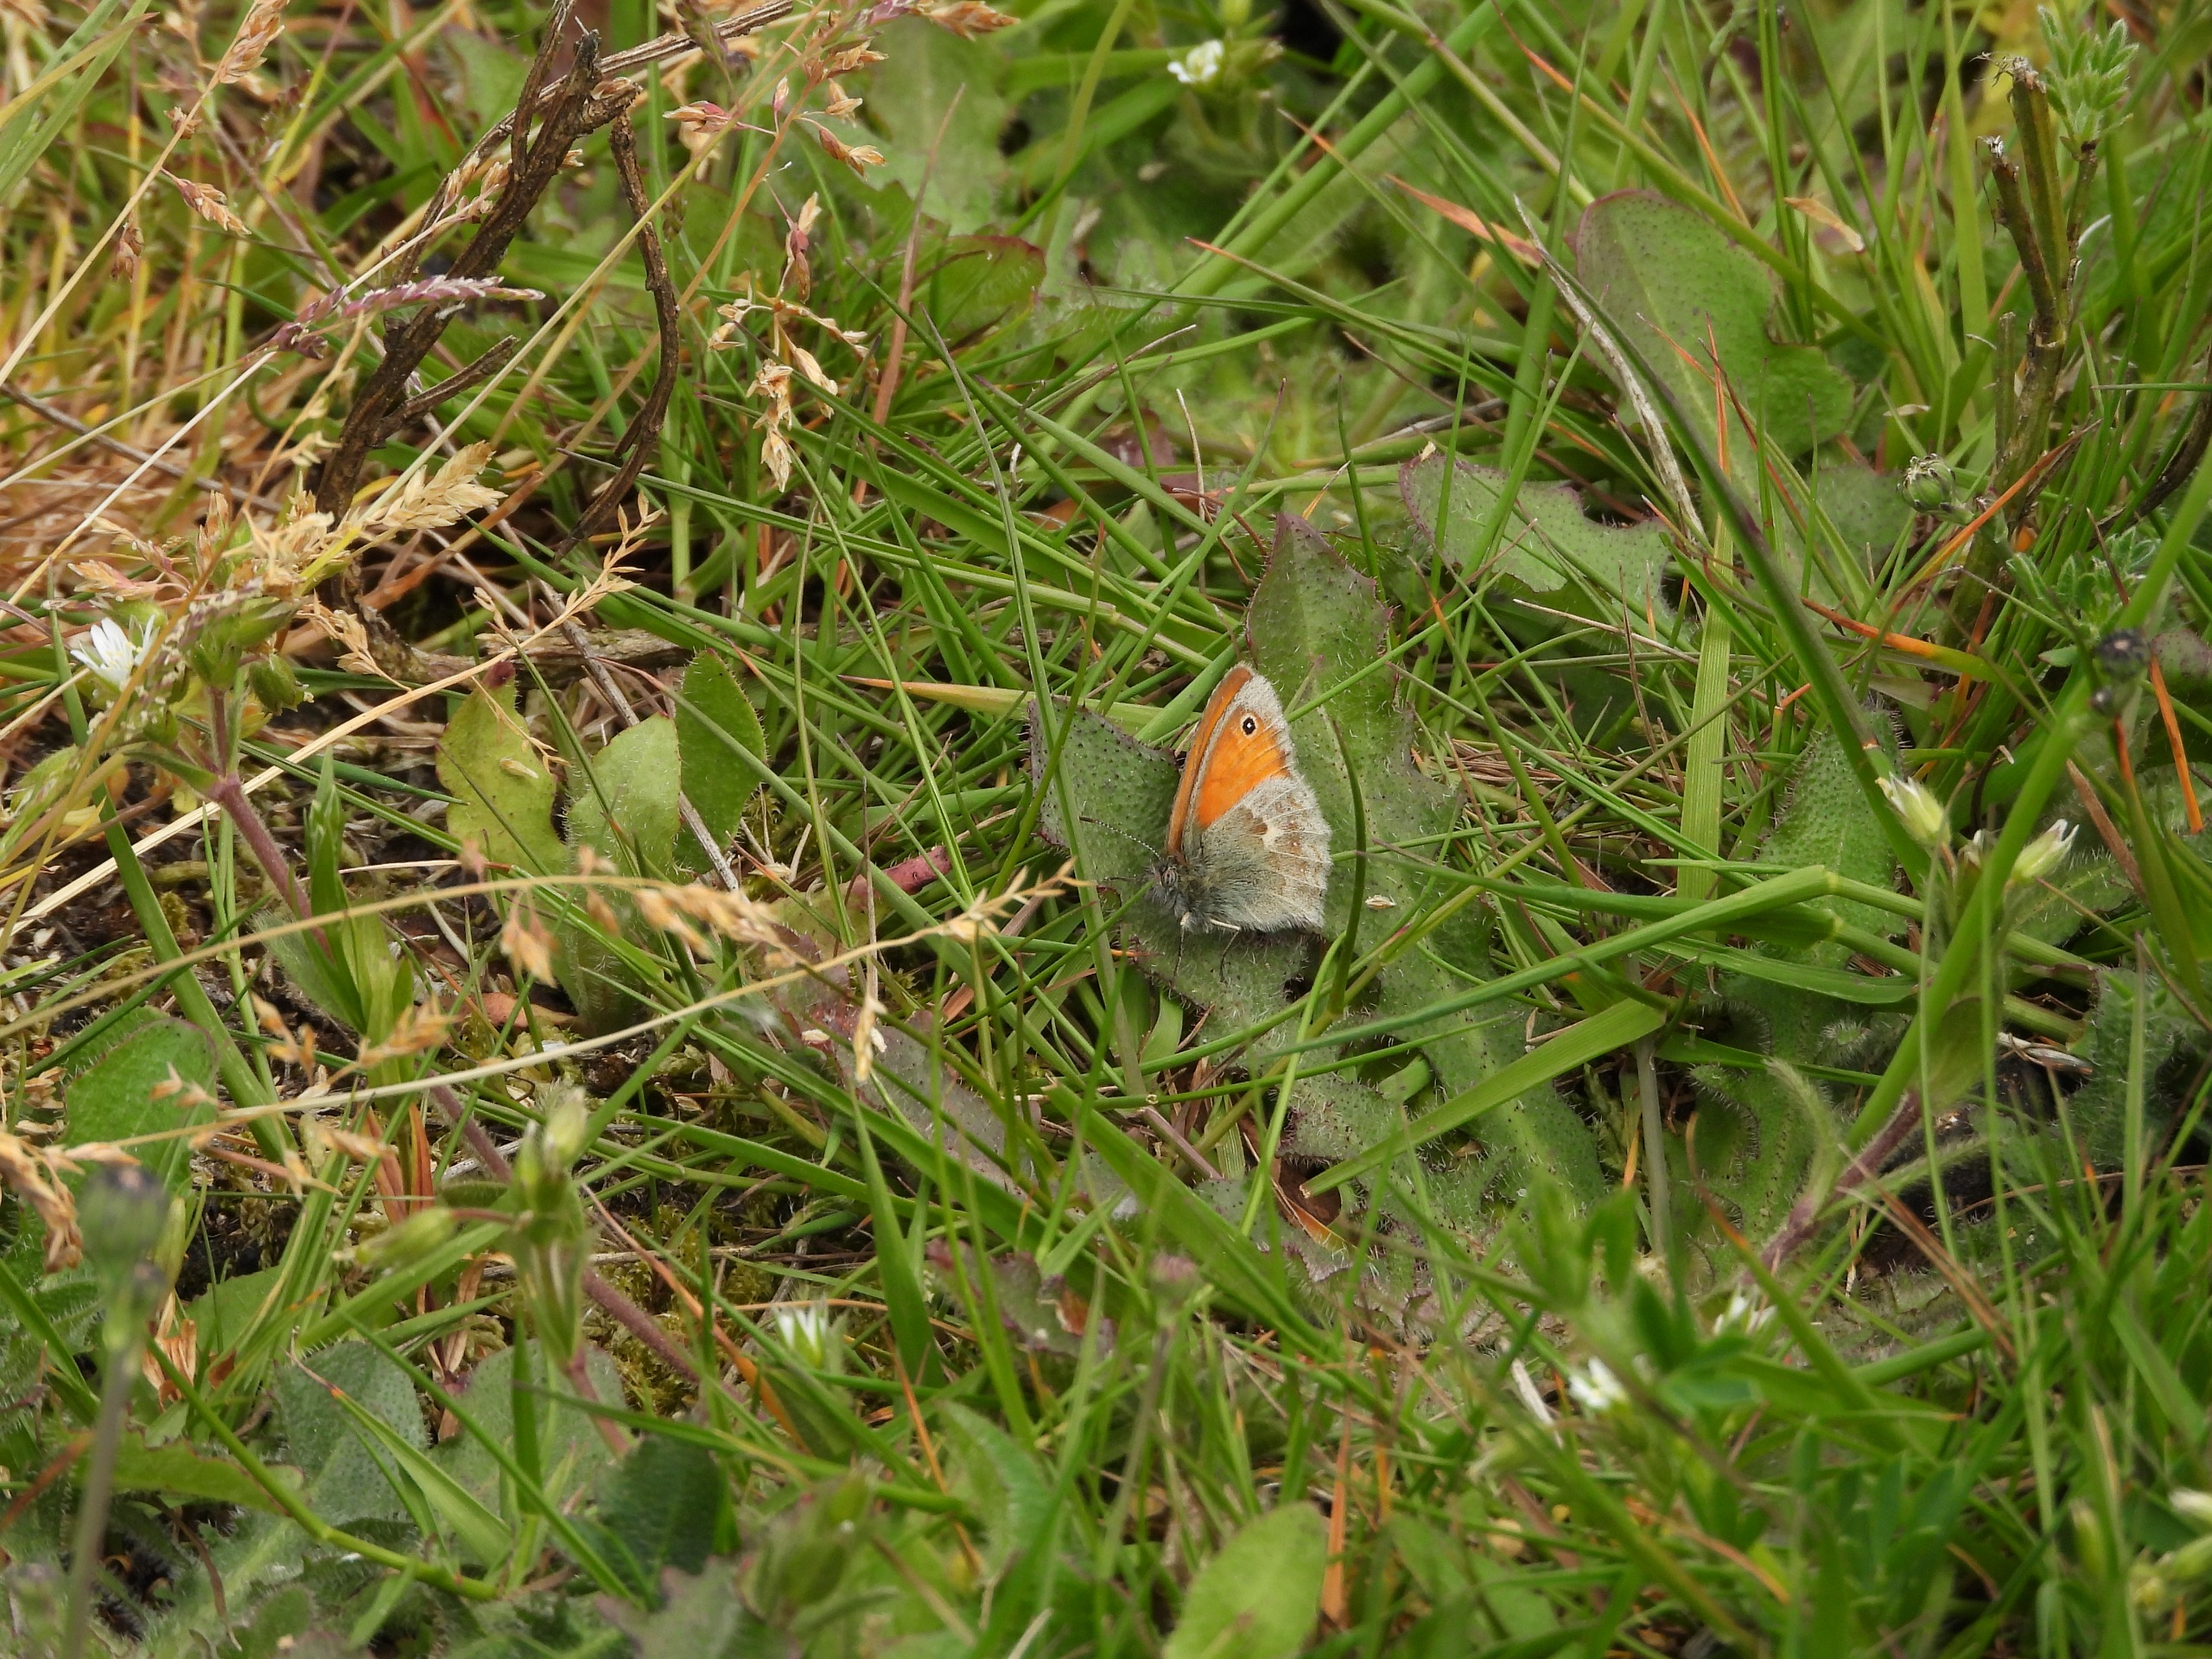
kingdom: Animalia
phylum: Arthropoda
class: Insecta
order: Lepidoptera
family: Nymphalidae
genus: Coenonympha
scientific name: Coenonympha pamphilus
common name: Okkergul randøje
